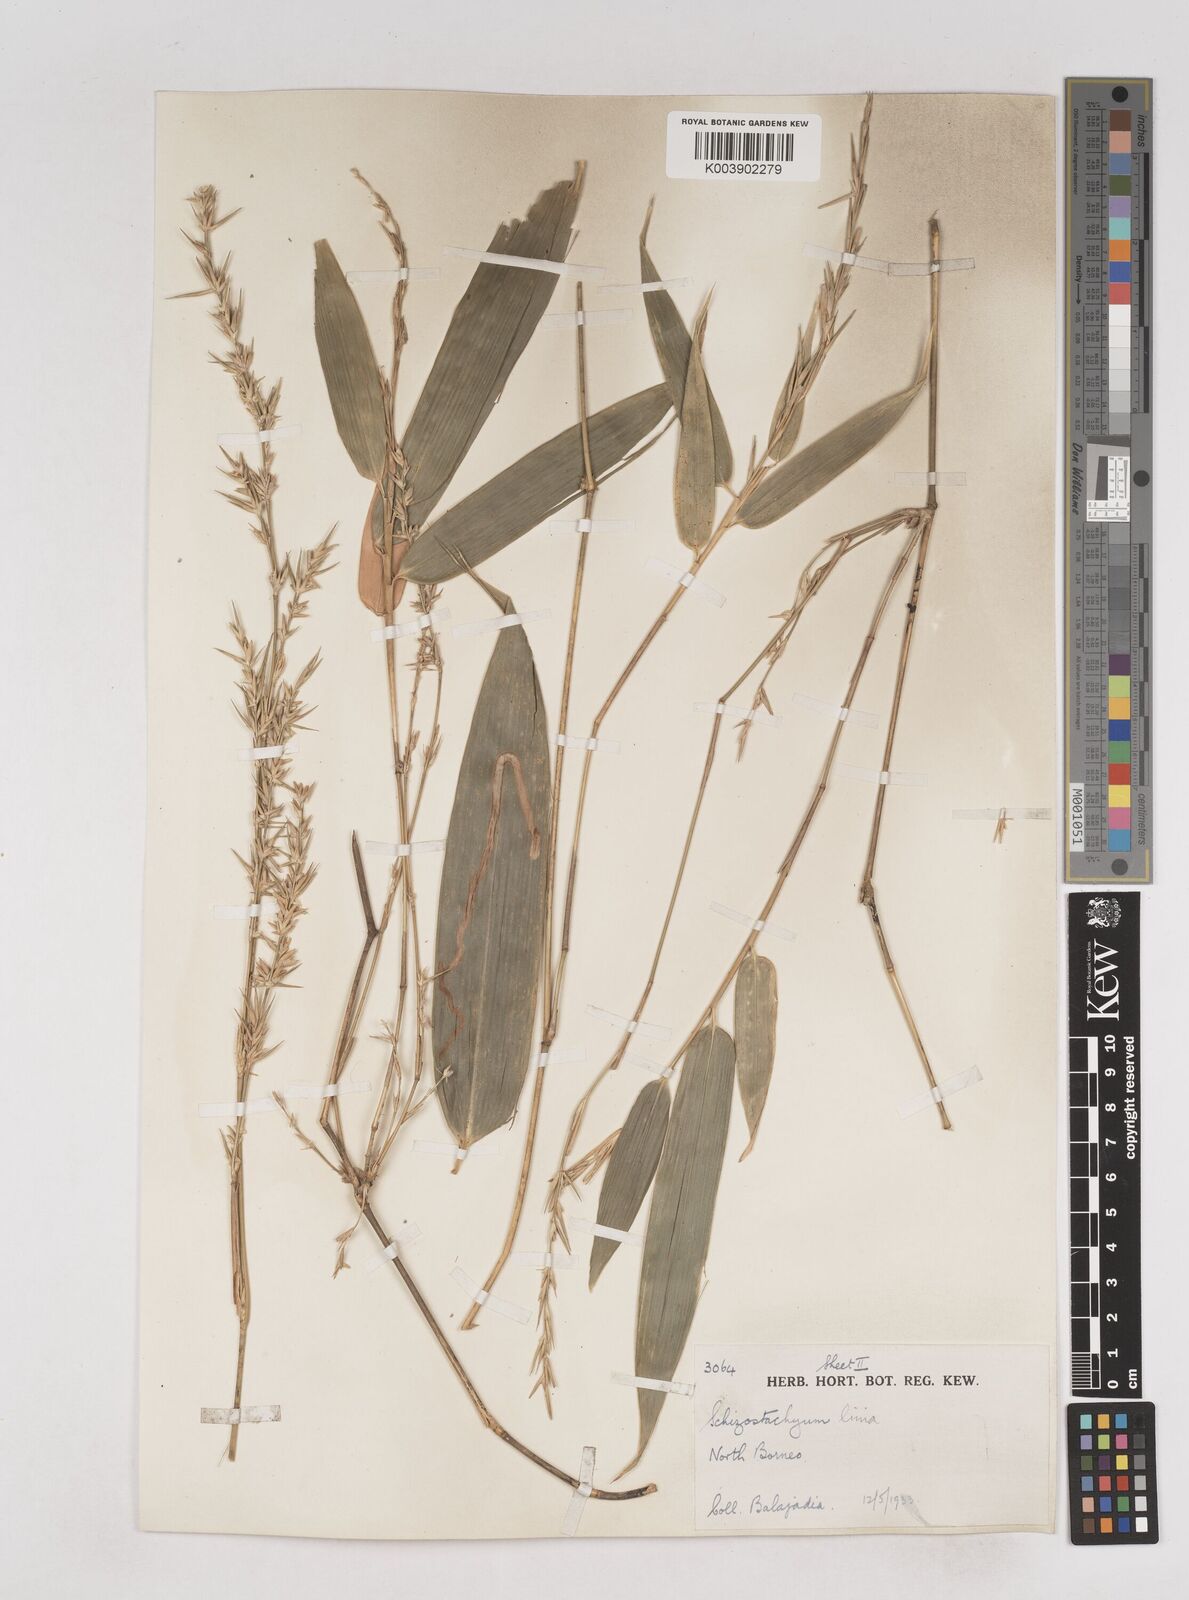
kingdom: Plantae
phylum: Tracheophyta
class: Liliopsida
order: Poales
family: Poaceae
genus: Schizostachyum
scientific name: Schizostachyum lima
